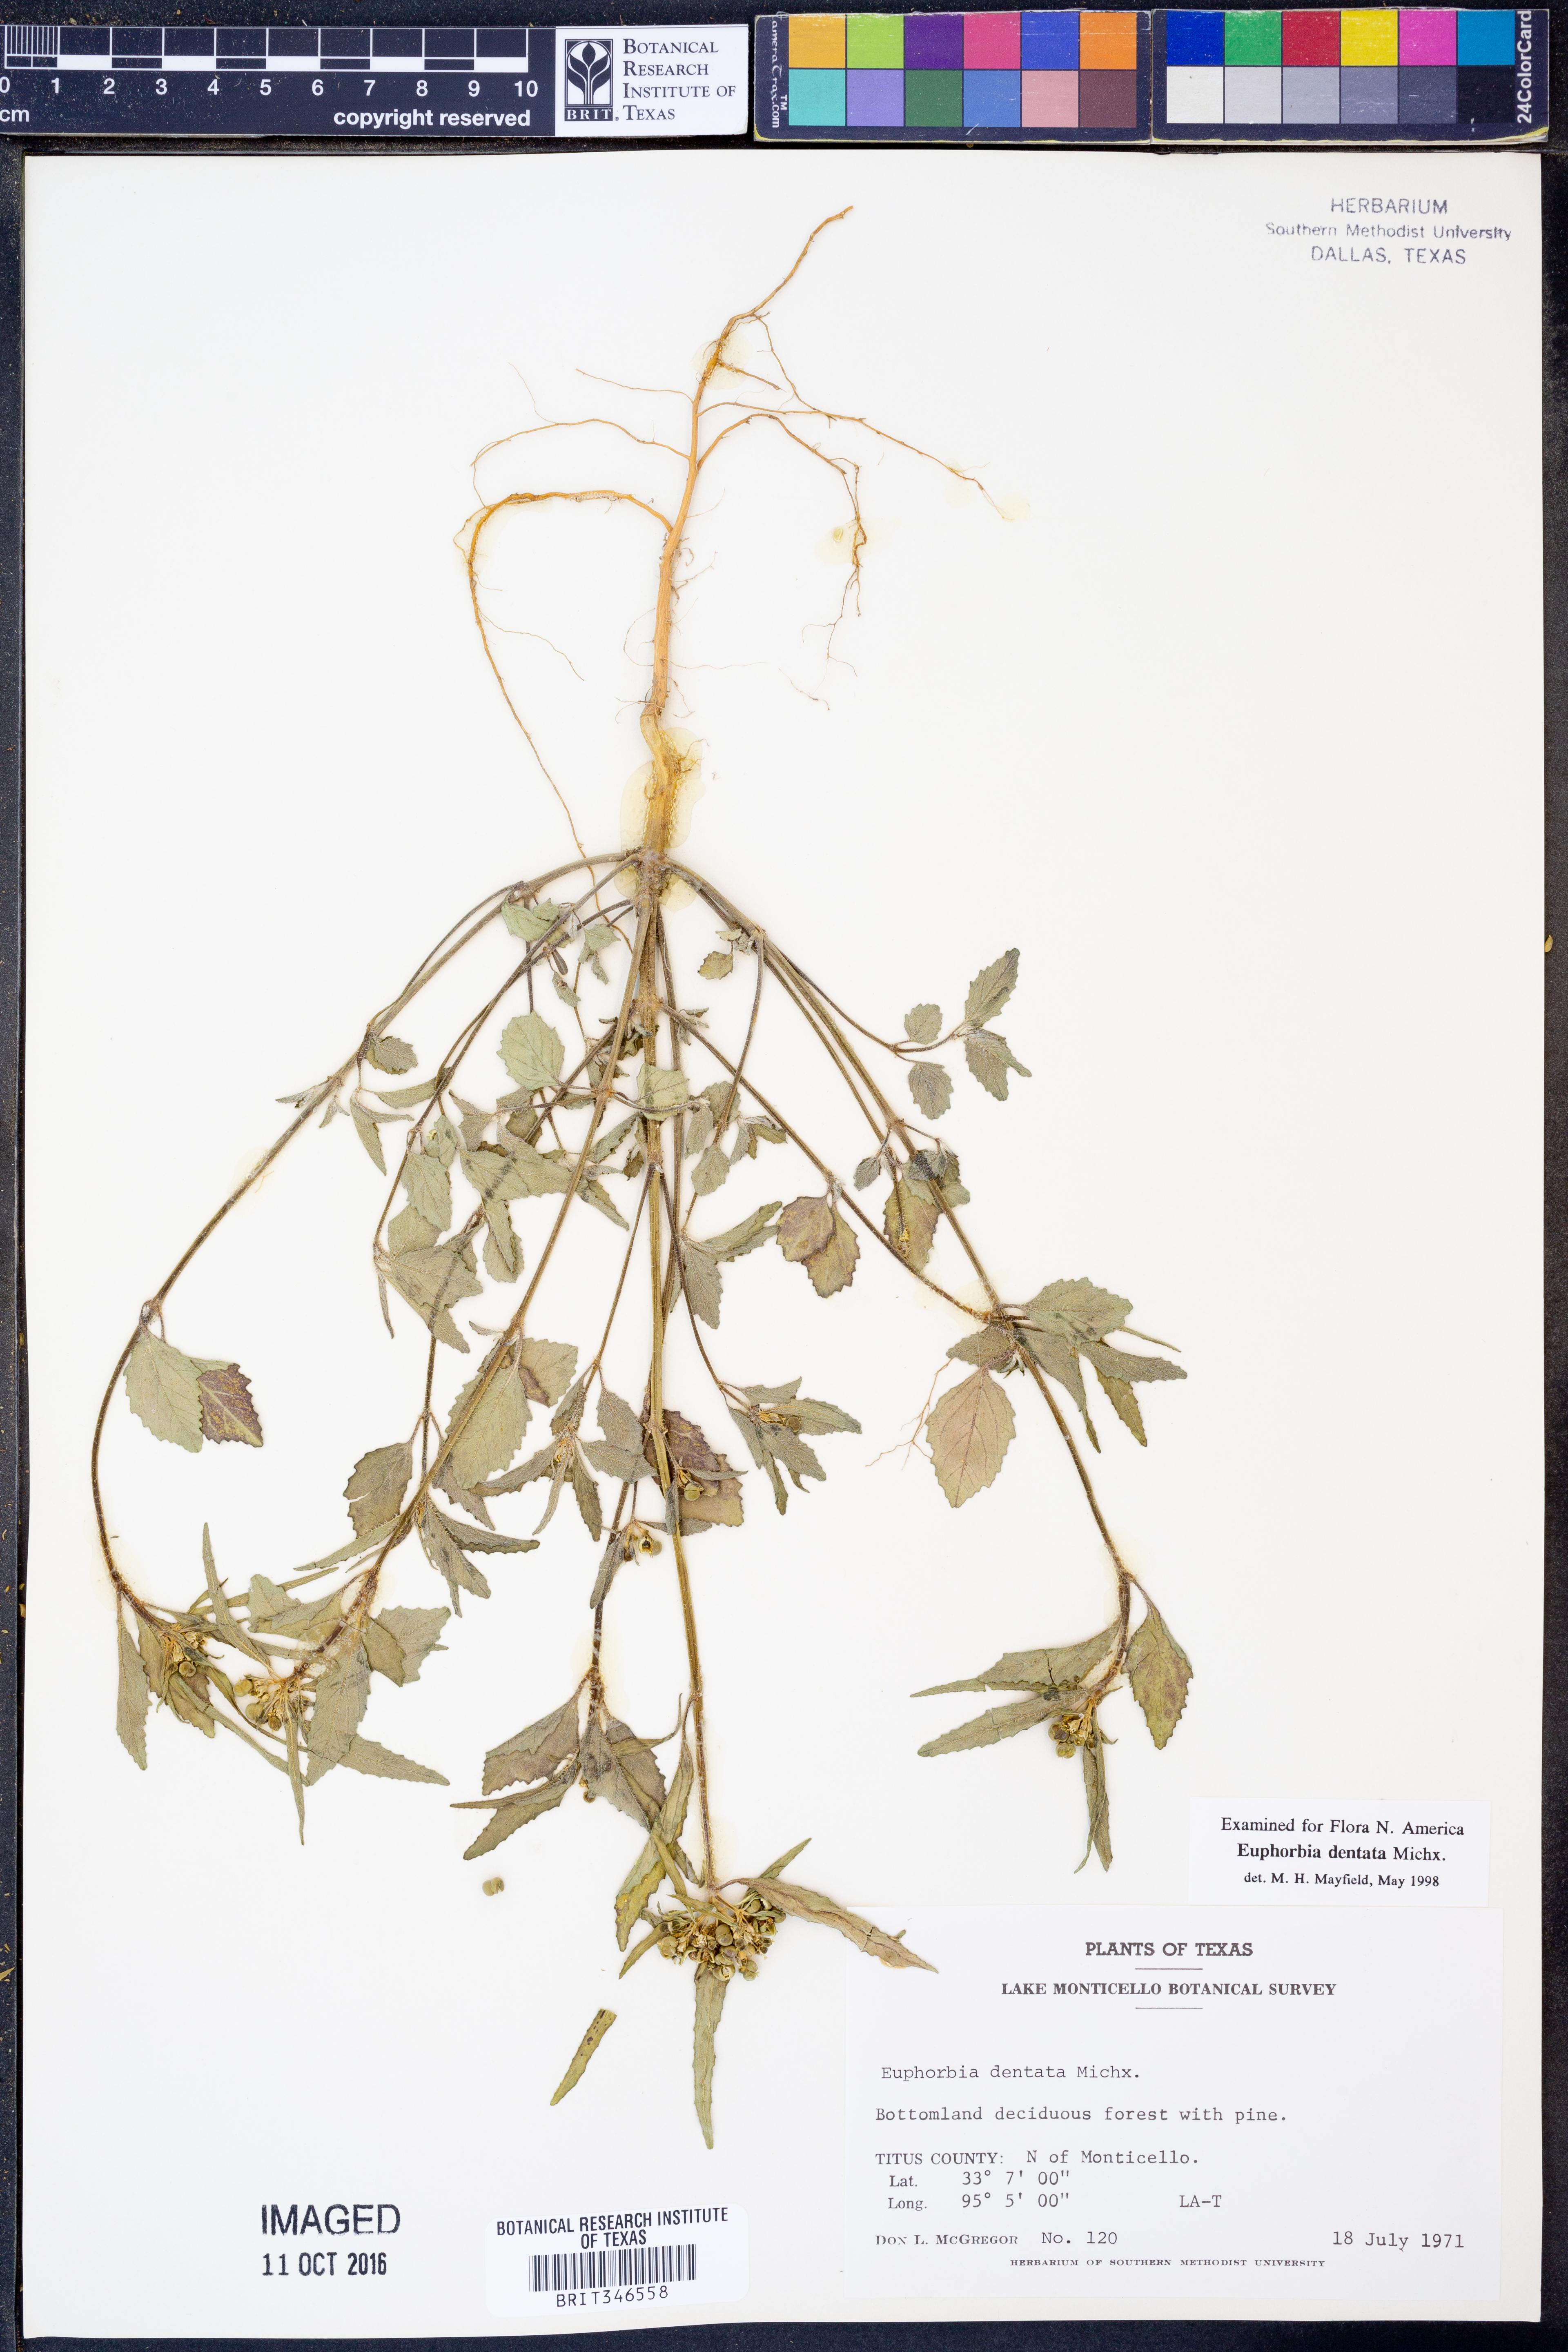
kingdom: Plantae
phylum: Tracheophyta
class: Magnoliopsida
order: Malpighiales
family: Euphorbiaceae
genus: Euphorbia
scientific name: Euphorbia dentata
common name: Dentate spurge
